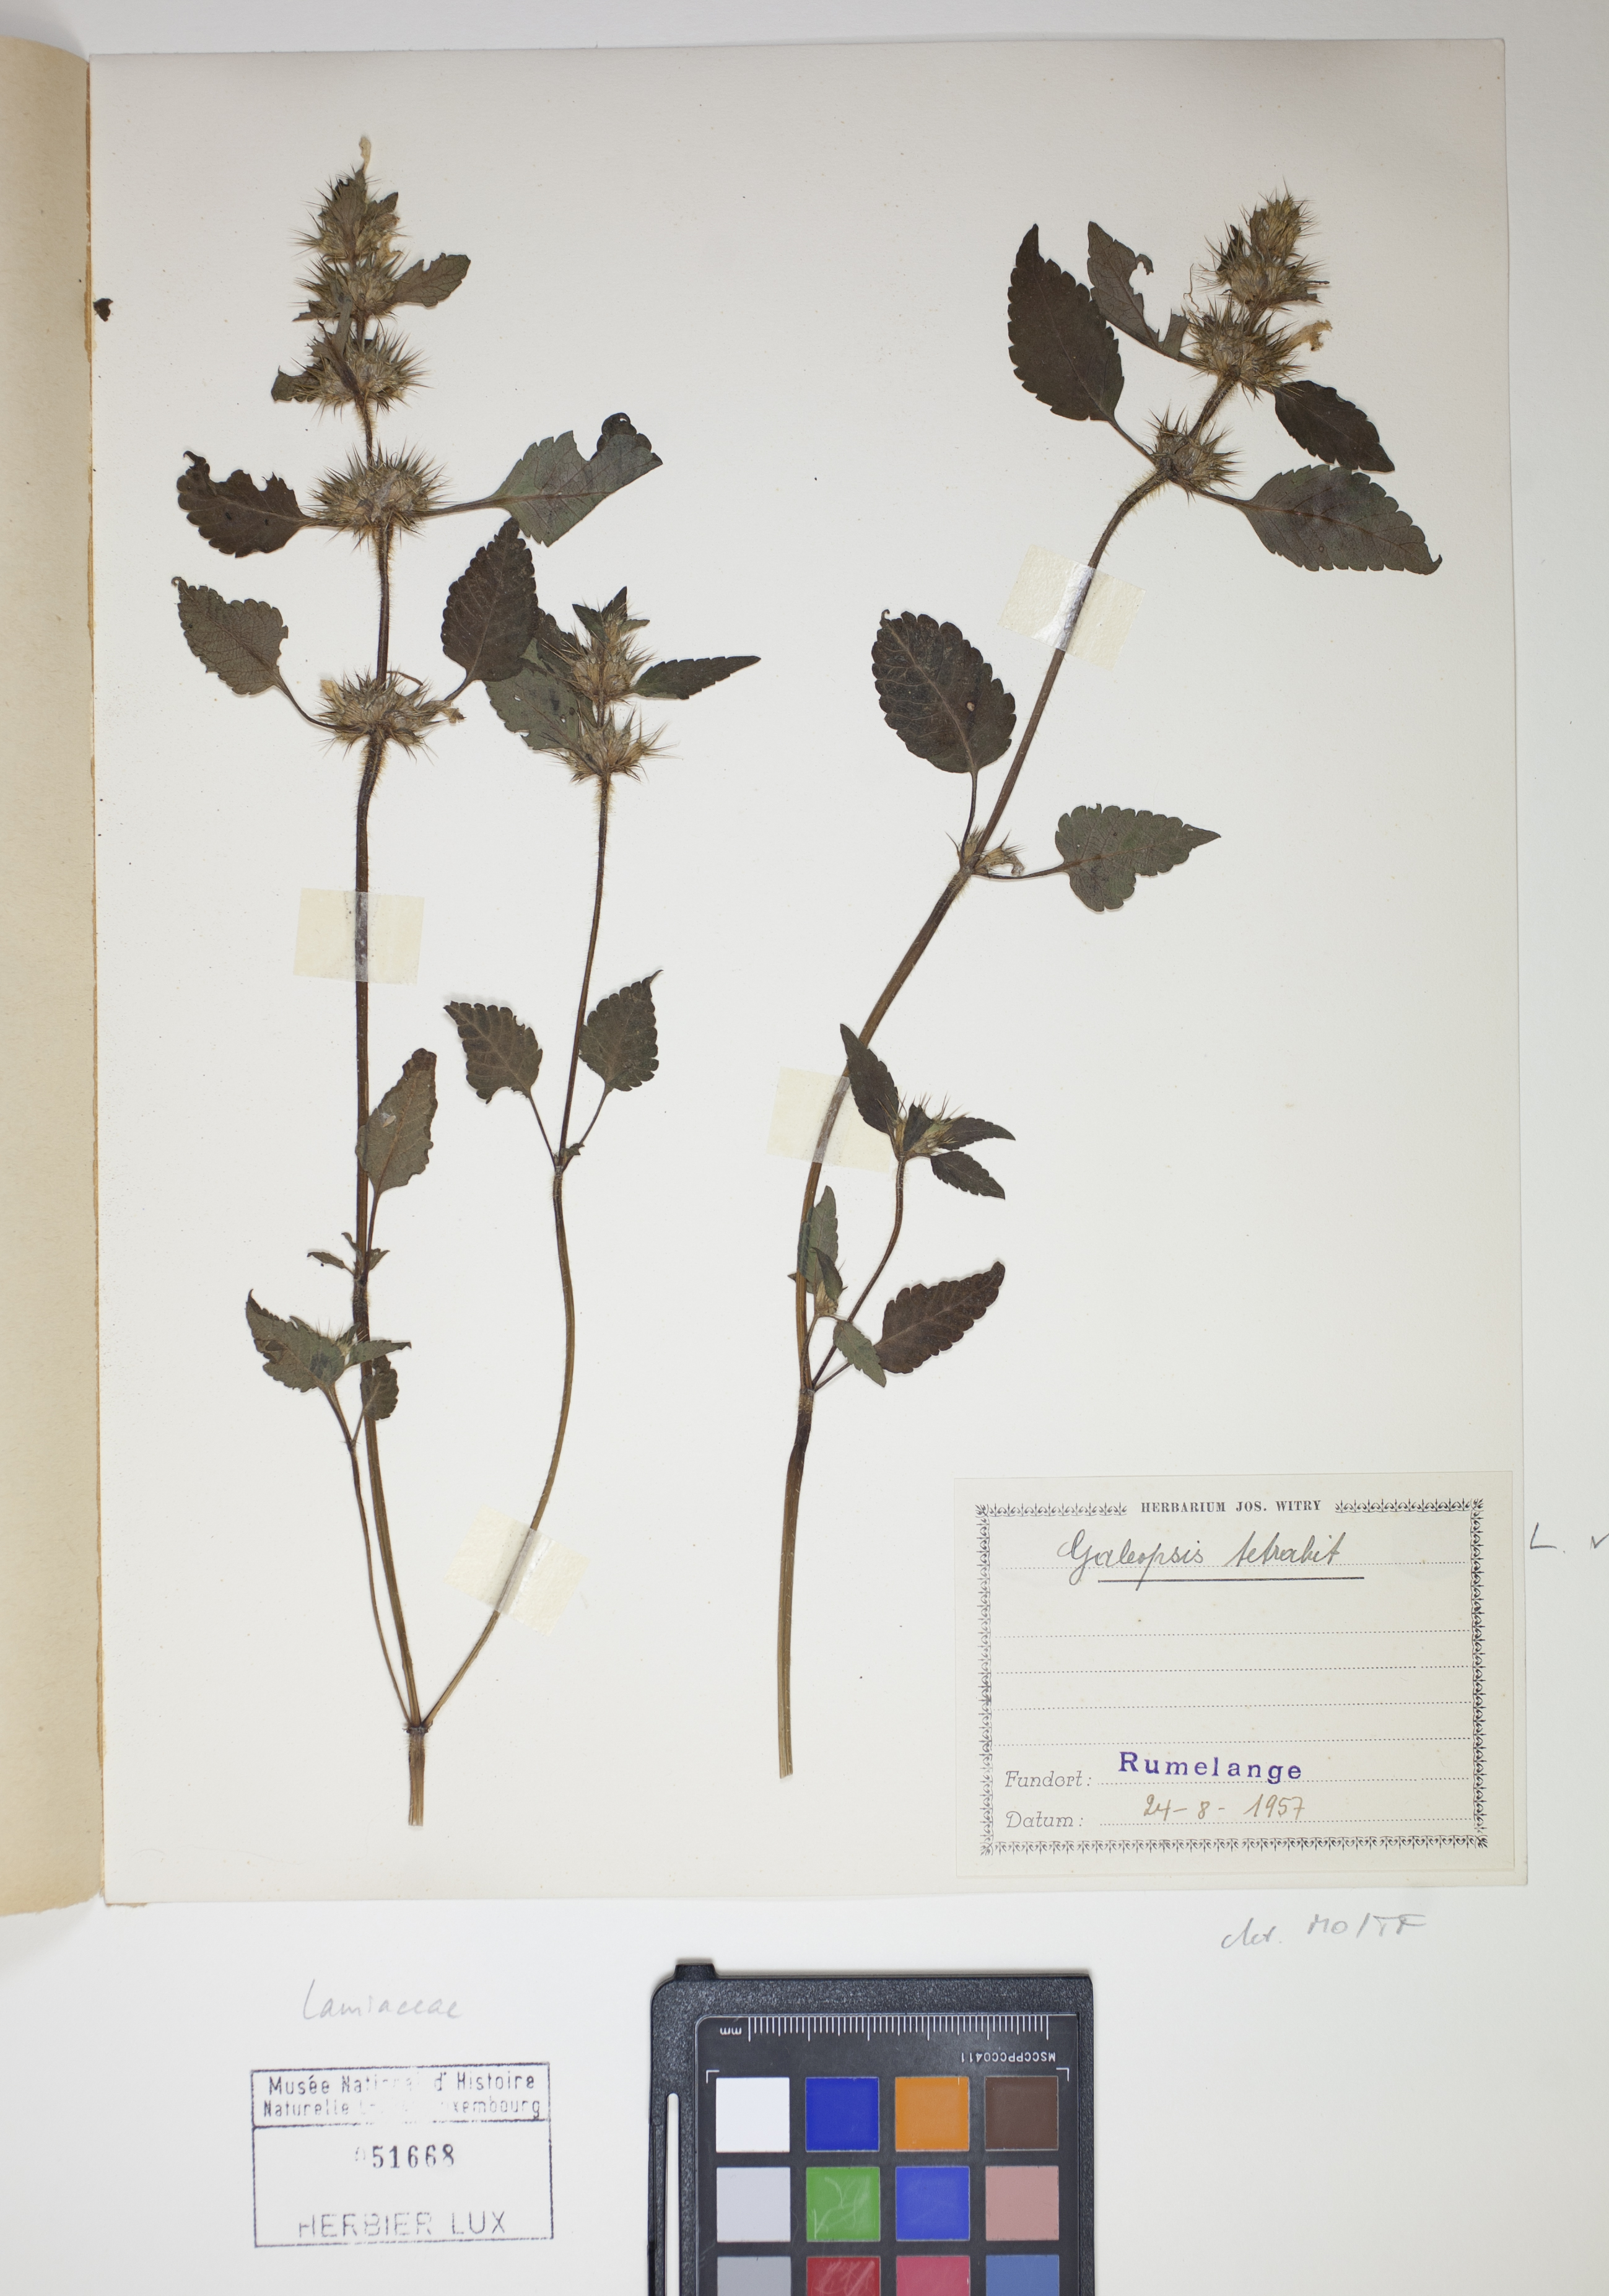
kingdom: Plantae
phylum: Tracheophyta
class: Magnoliopsida
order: Lamiales
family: Lamiaceae
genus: Galeopsis
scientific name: Galeopsis tetrahit
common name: Common hemp-nettle
